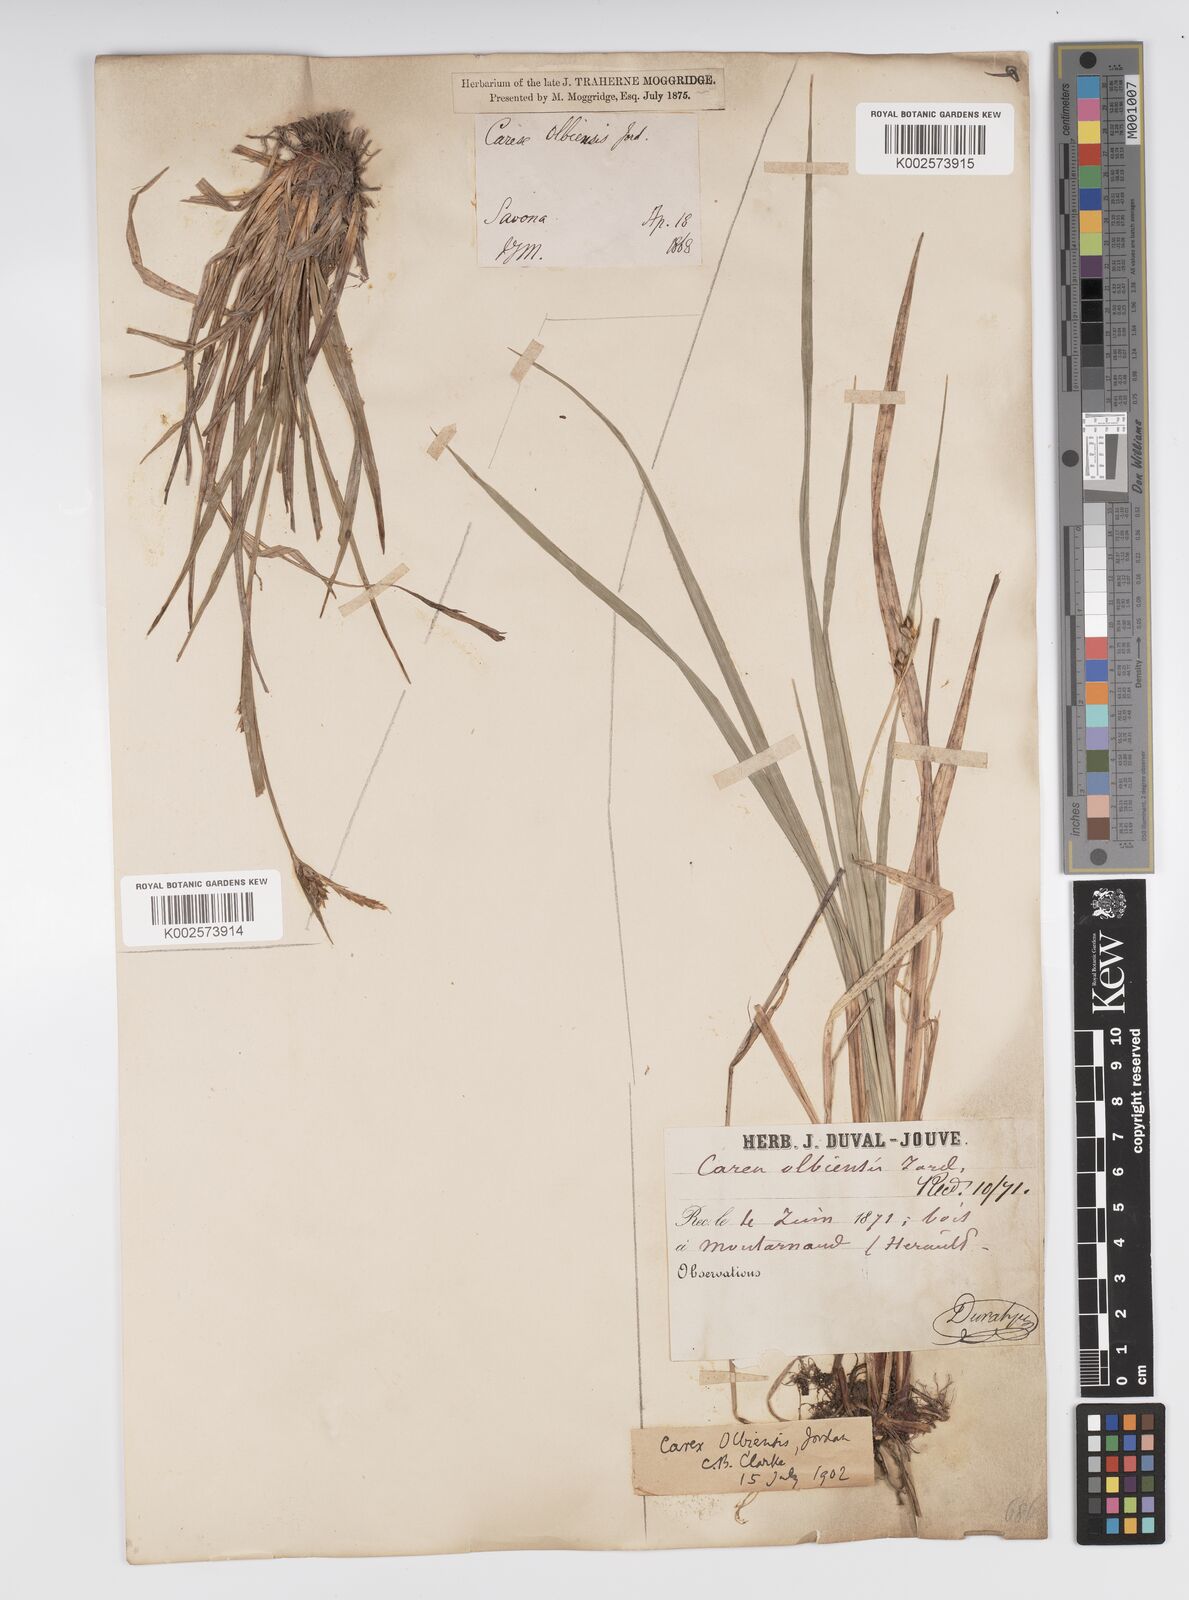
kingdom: Plantae
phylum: Tracheophyta
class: Liliopsida
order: Poales
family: Cyperaceae
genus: Carex
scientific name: Carex olbiensis
